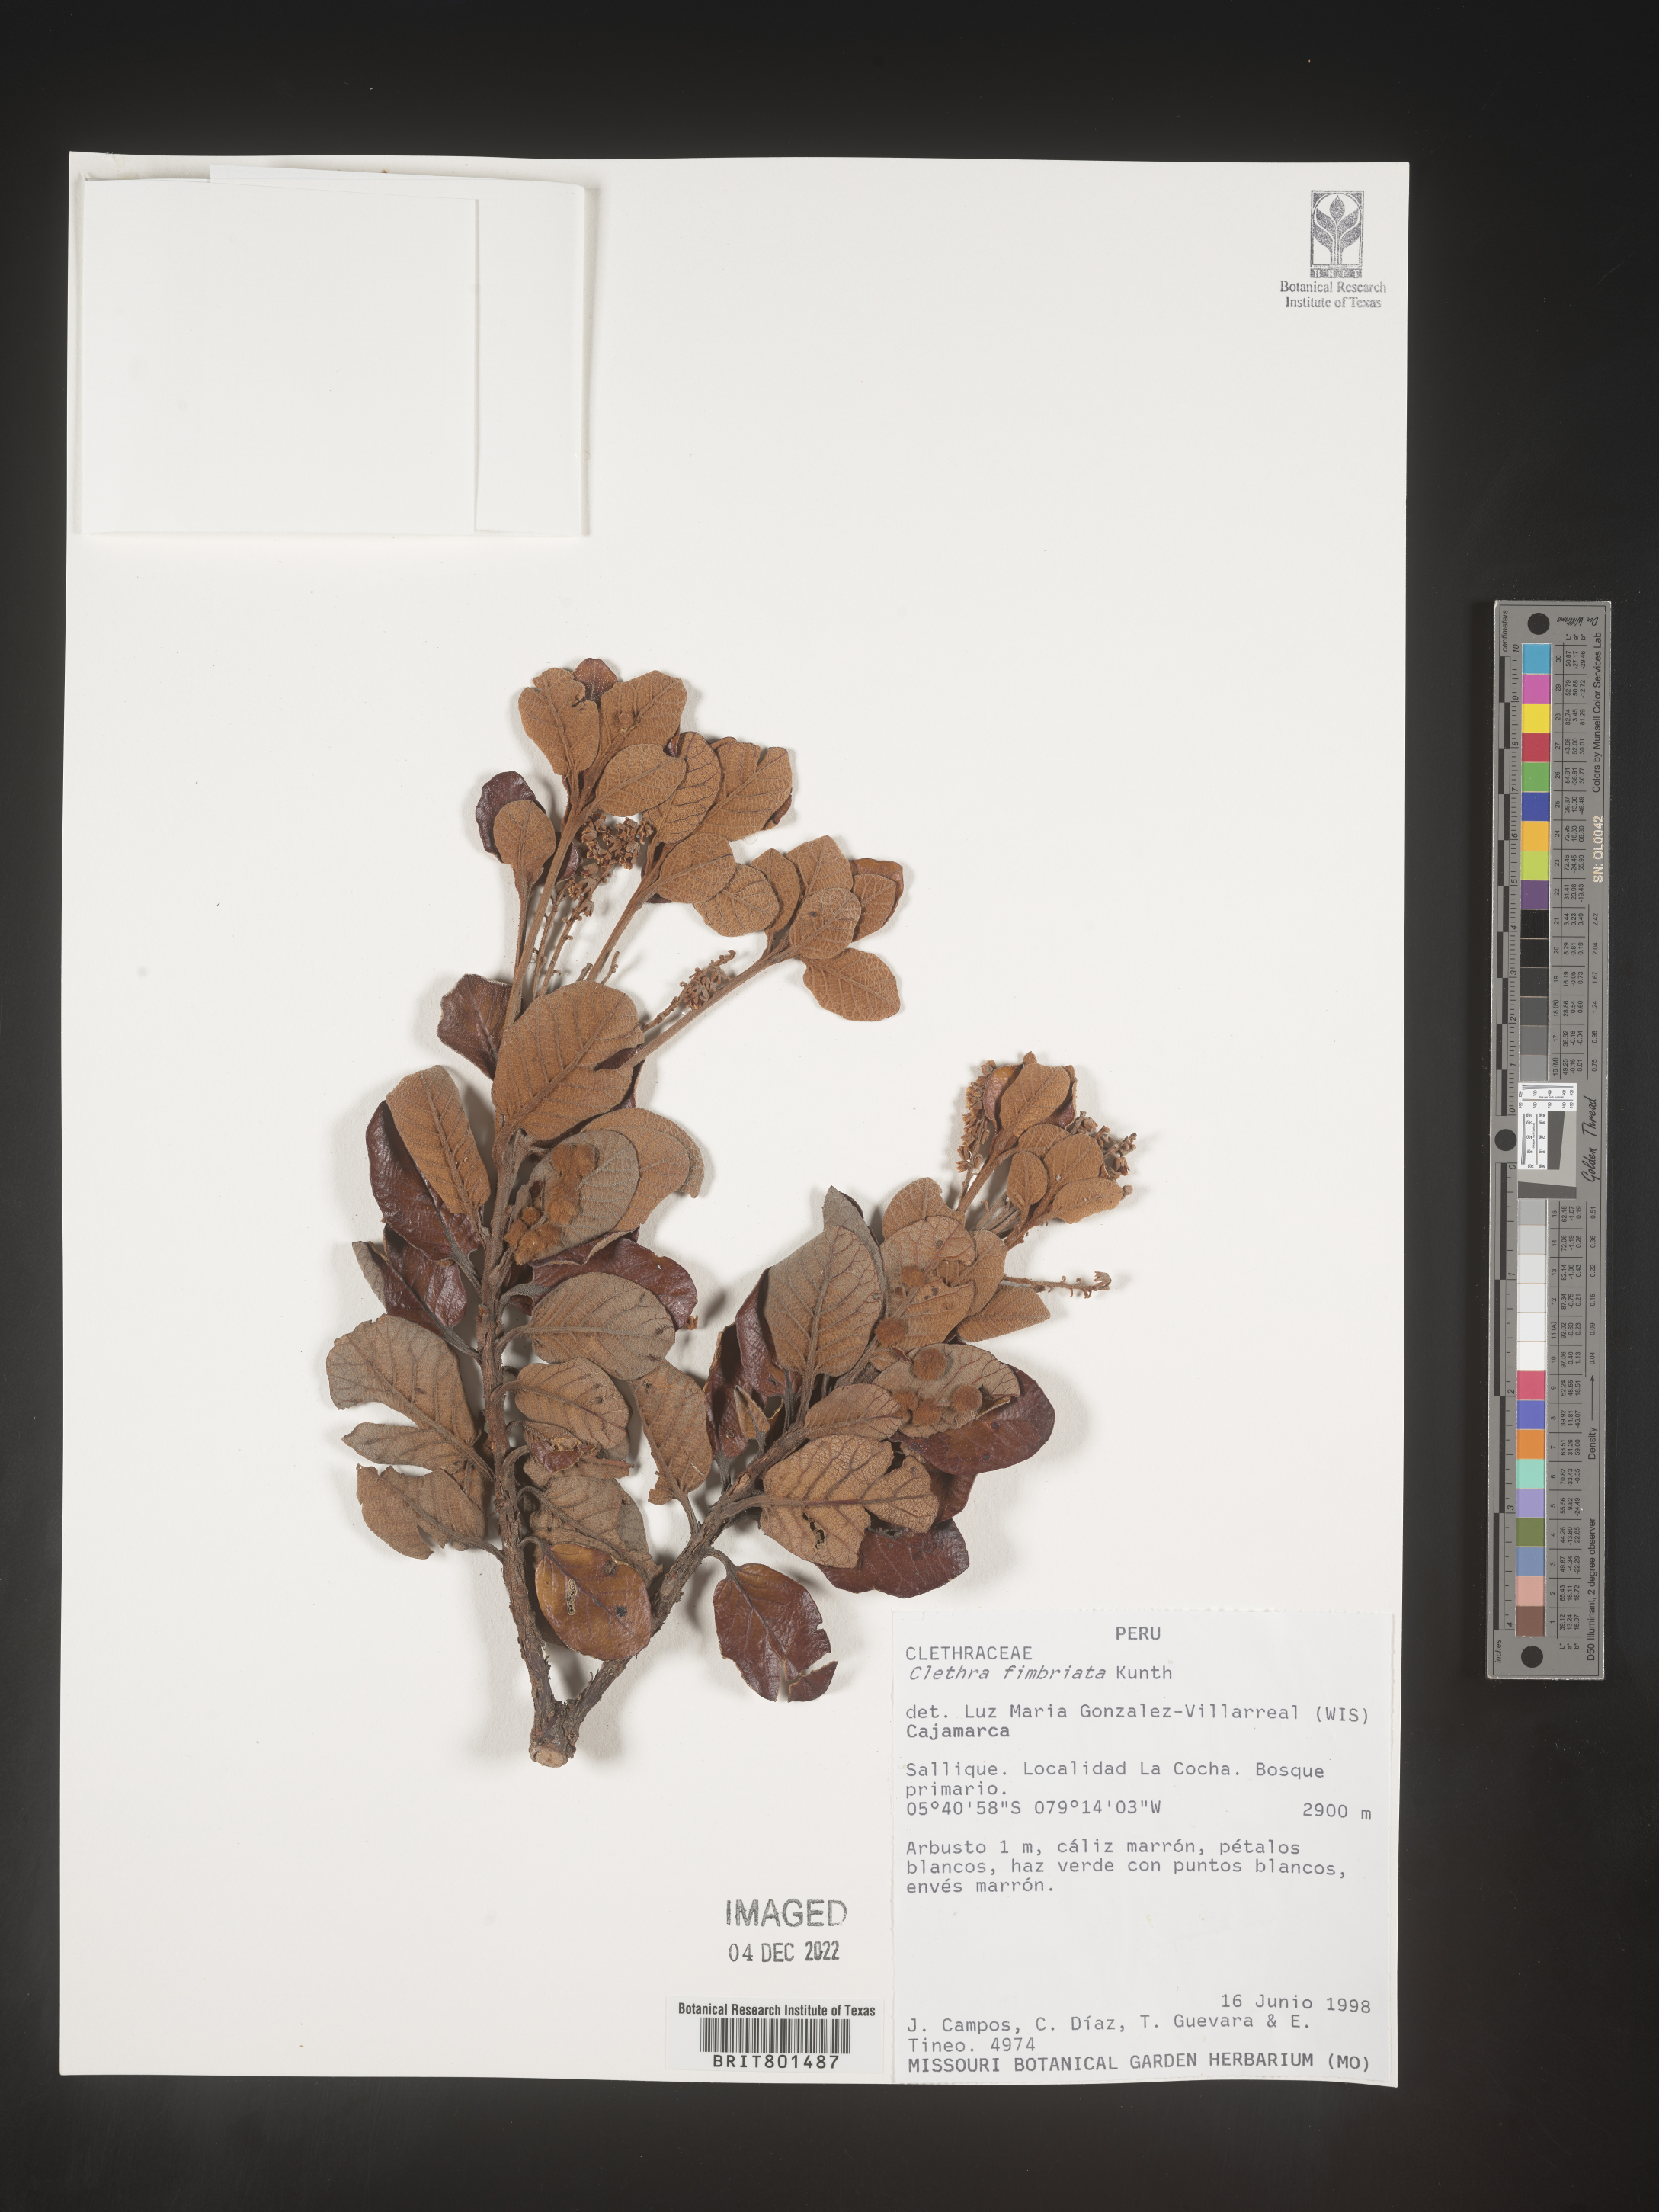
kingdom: Plantae
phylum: Tracheophyta
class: Magnoliopsida
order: Ericales
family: Clethraceae
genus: Clethra
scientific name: Clethra
